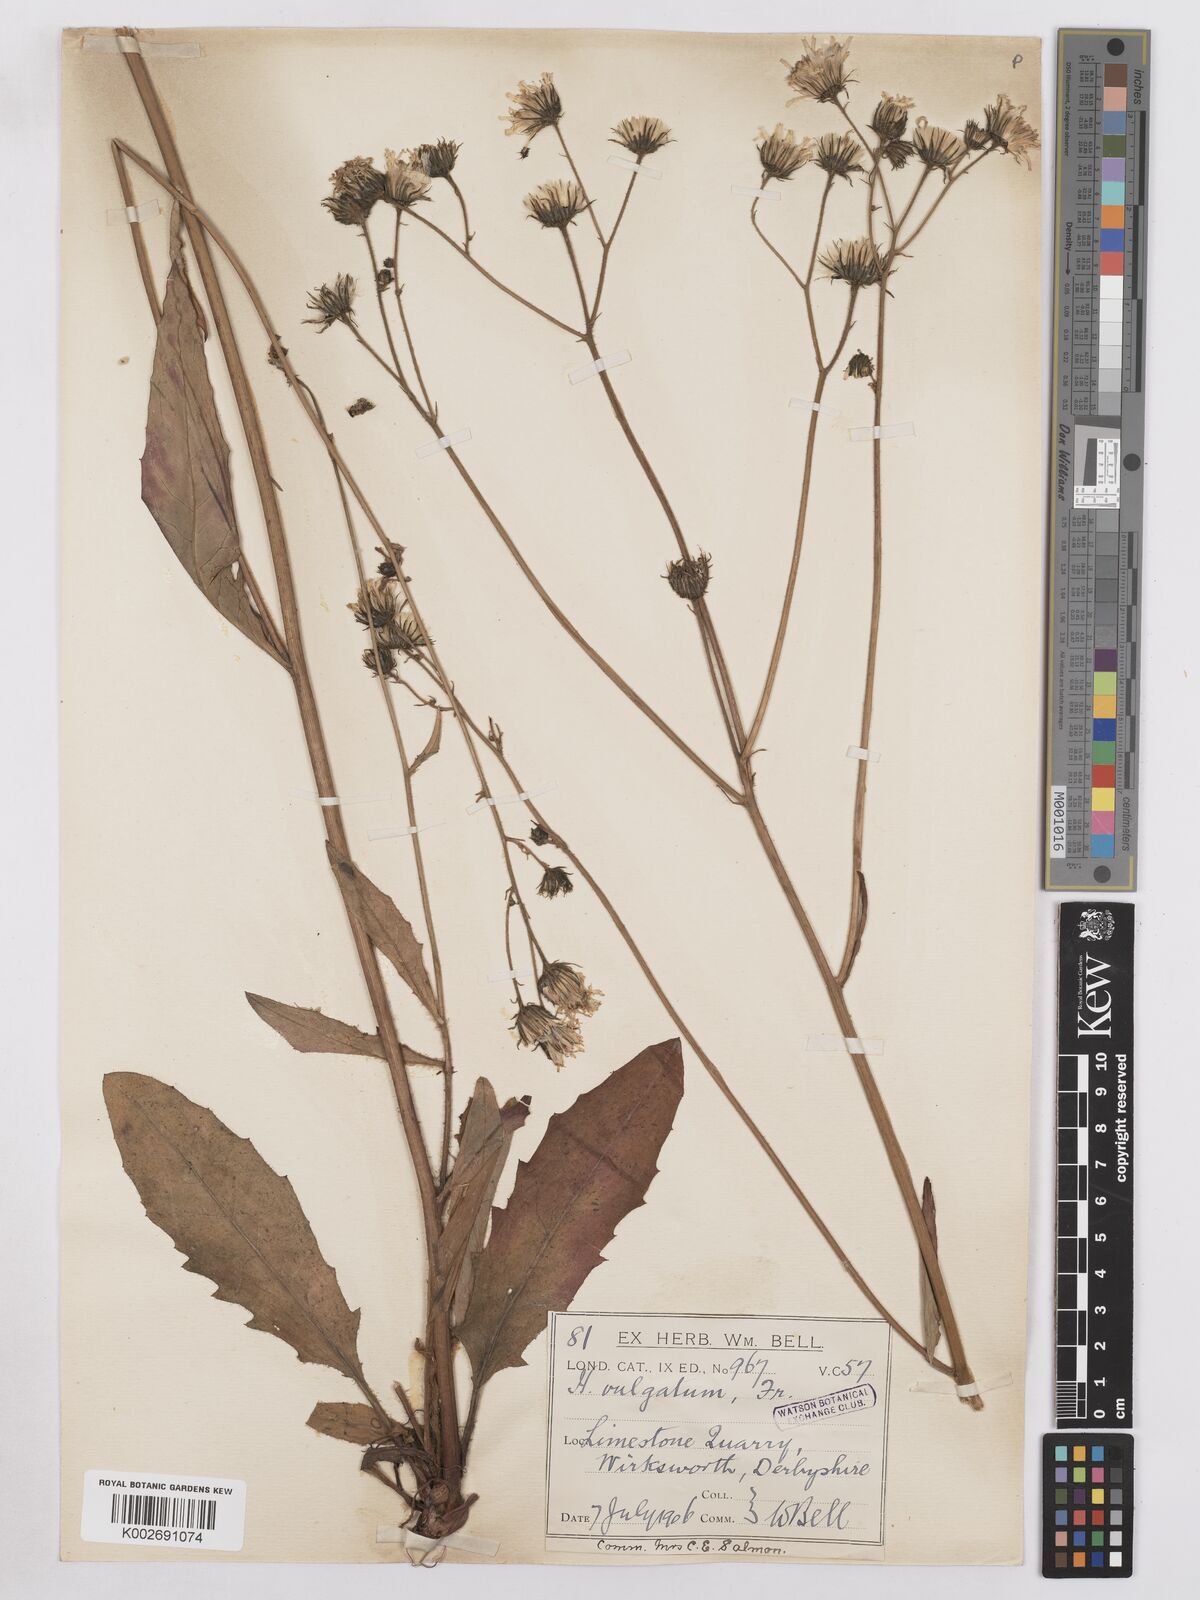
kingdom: Plantae
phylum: Tracheophyta
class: Magnoliopsida
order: Asterales
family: Asteraceae
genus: Hieracium
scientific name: Hieracium lachenalii
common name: Common hawkweed
